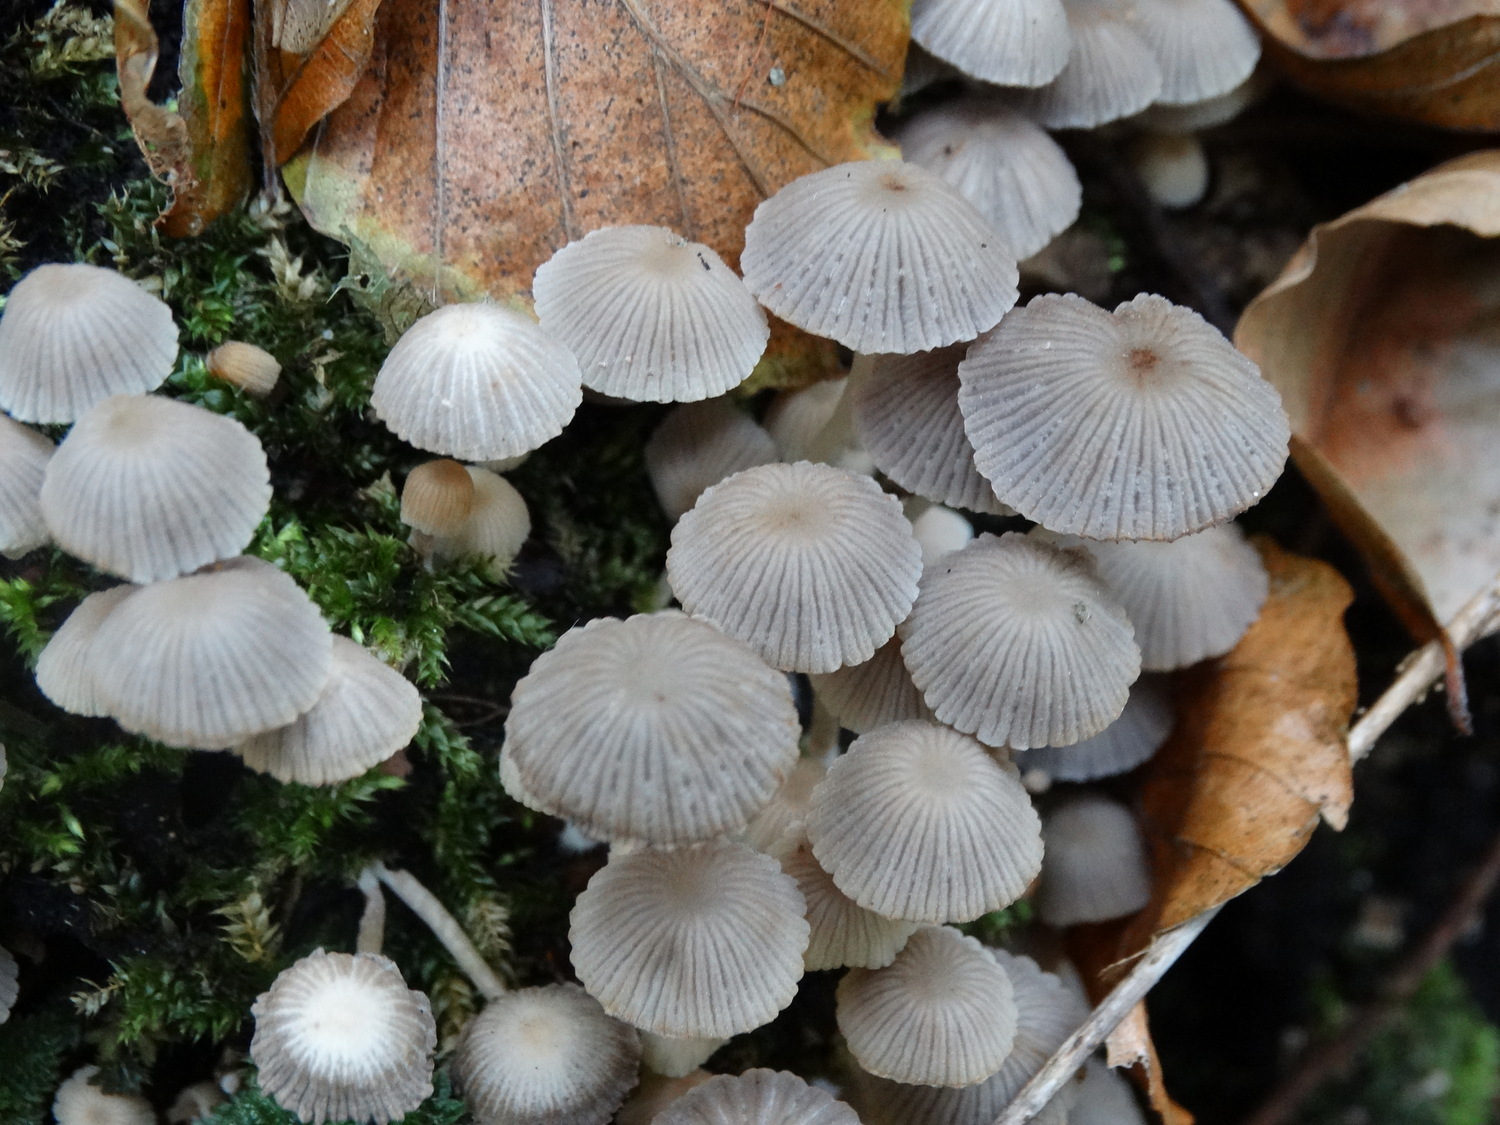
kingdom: Fungi
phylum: Basidiomycota
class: Agaricomycetes
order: Agaricales
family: Psathyrellaceae
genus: Coprinellus
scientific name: Coprinellus disseminatus
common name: bredsået blækhat
